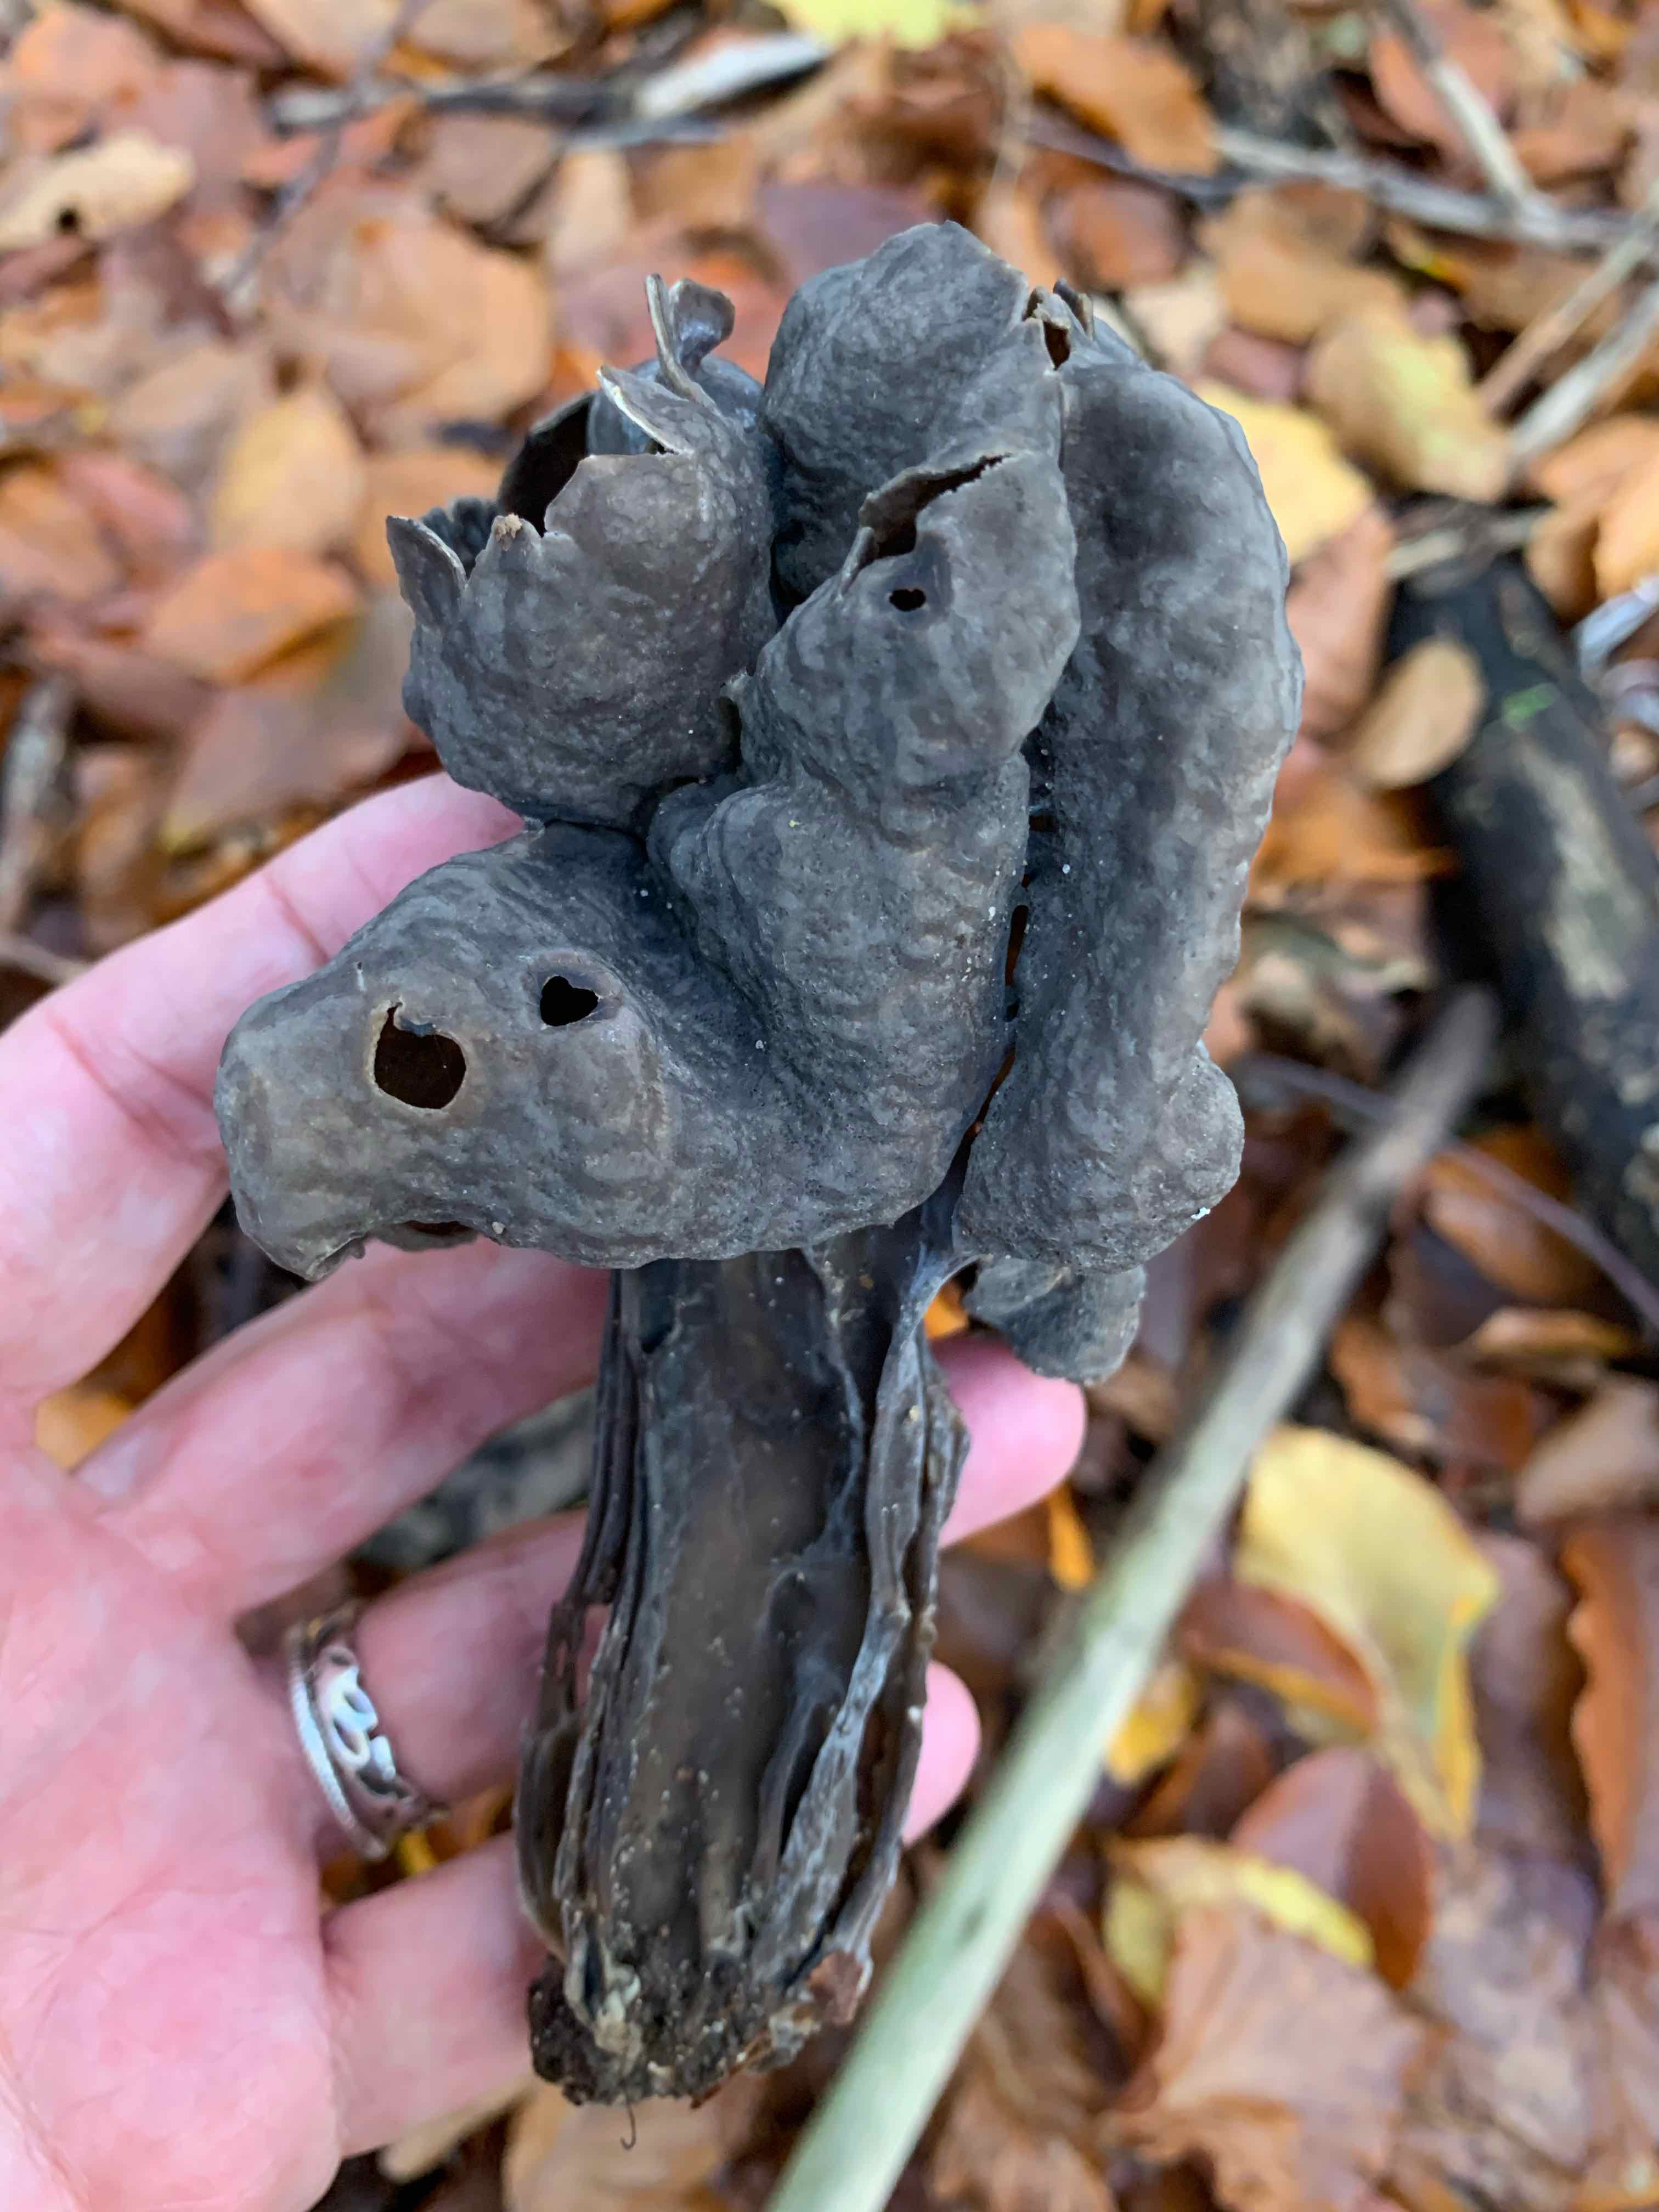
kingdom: Fungi
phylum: Ascomycota
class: Pezizomycetes
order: Pezizales
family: Helvellaceae
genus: Helvella
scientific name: Helvella lacunosa
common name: grubet foldhat
